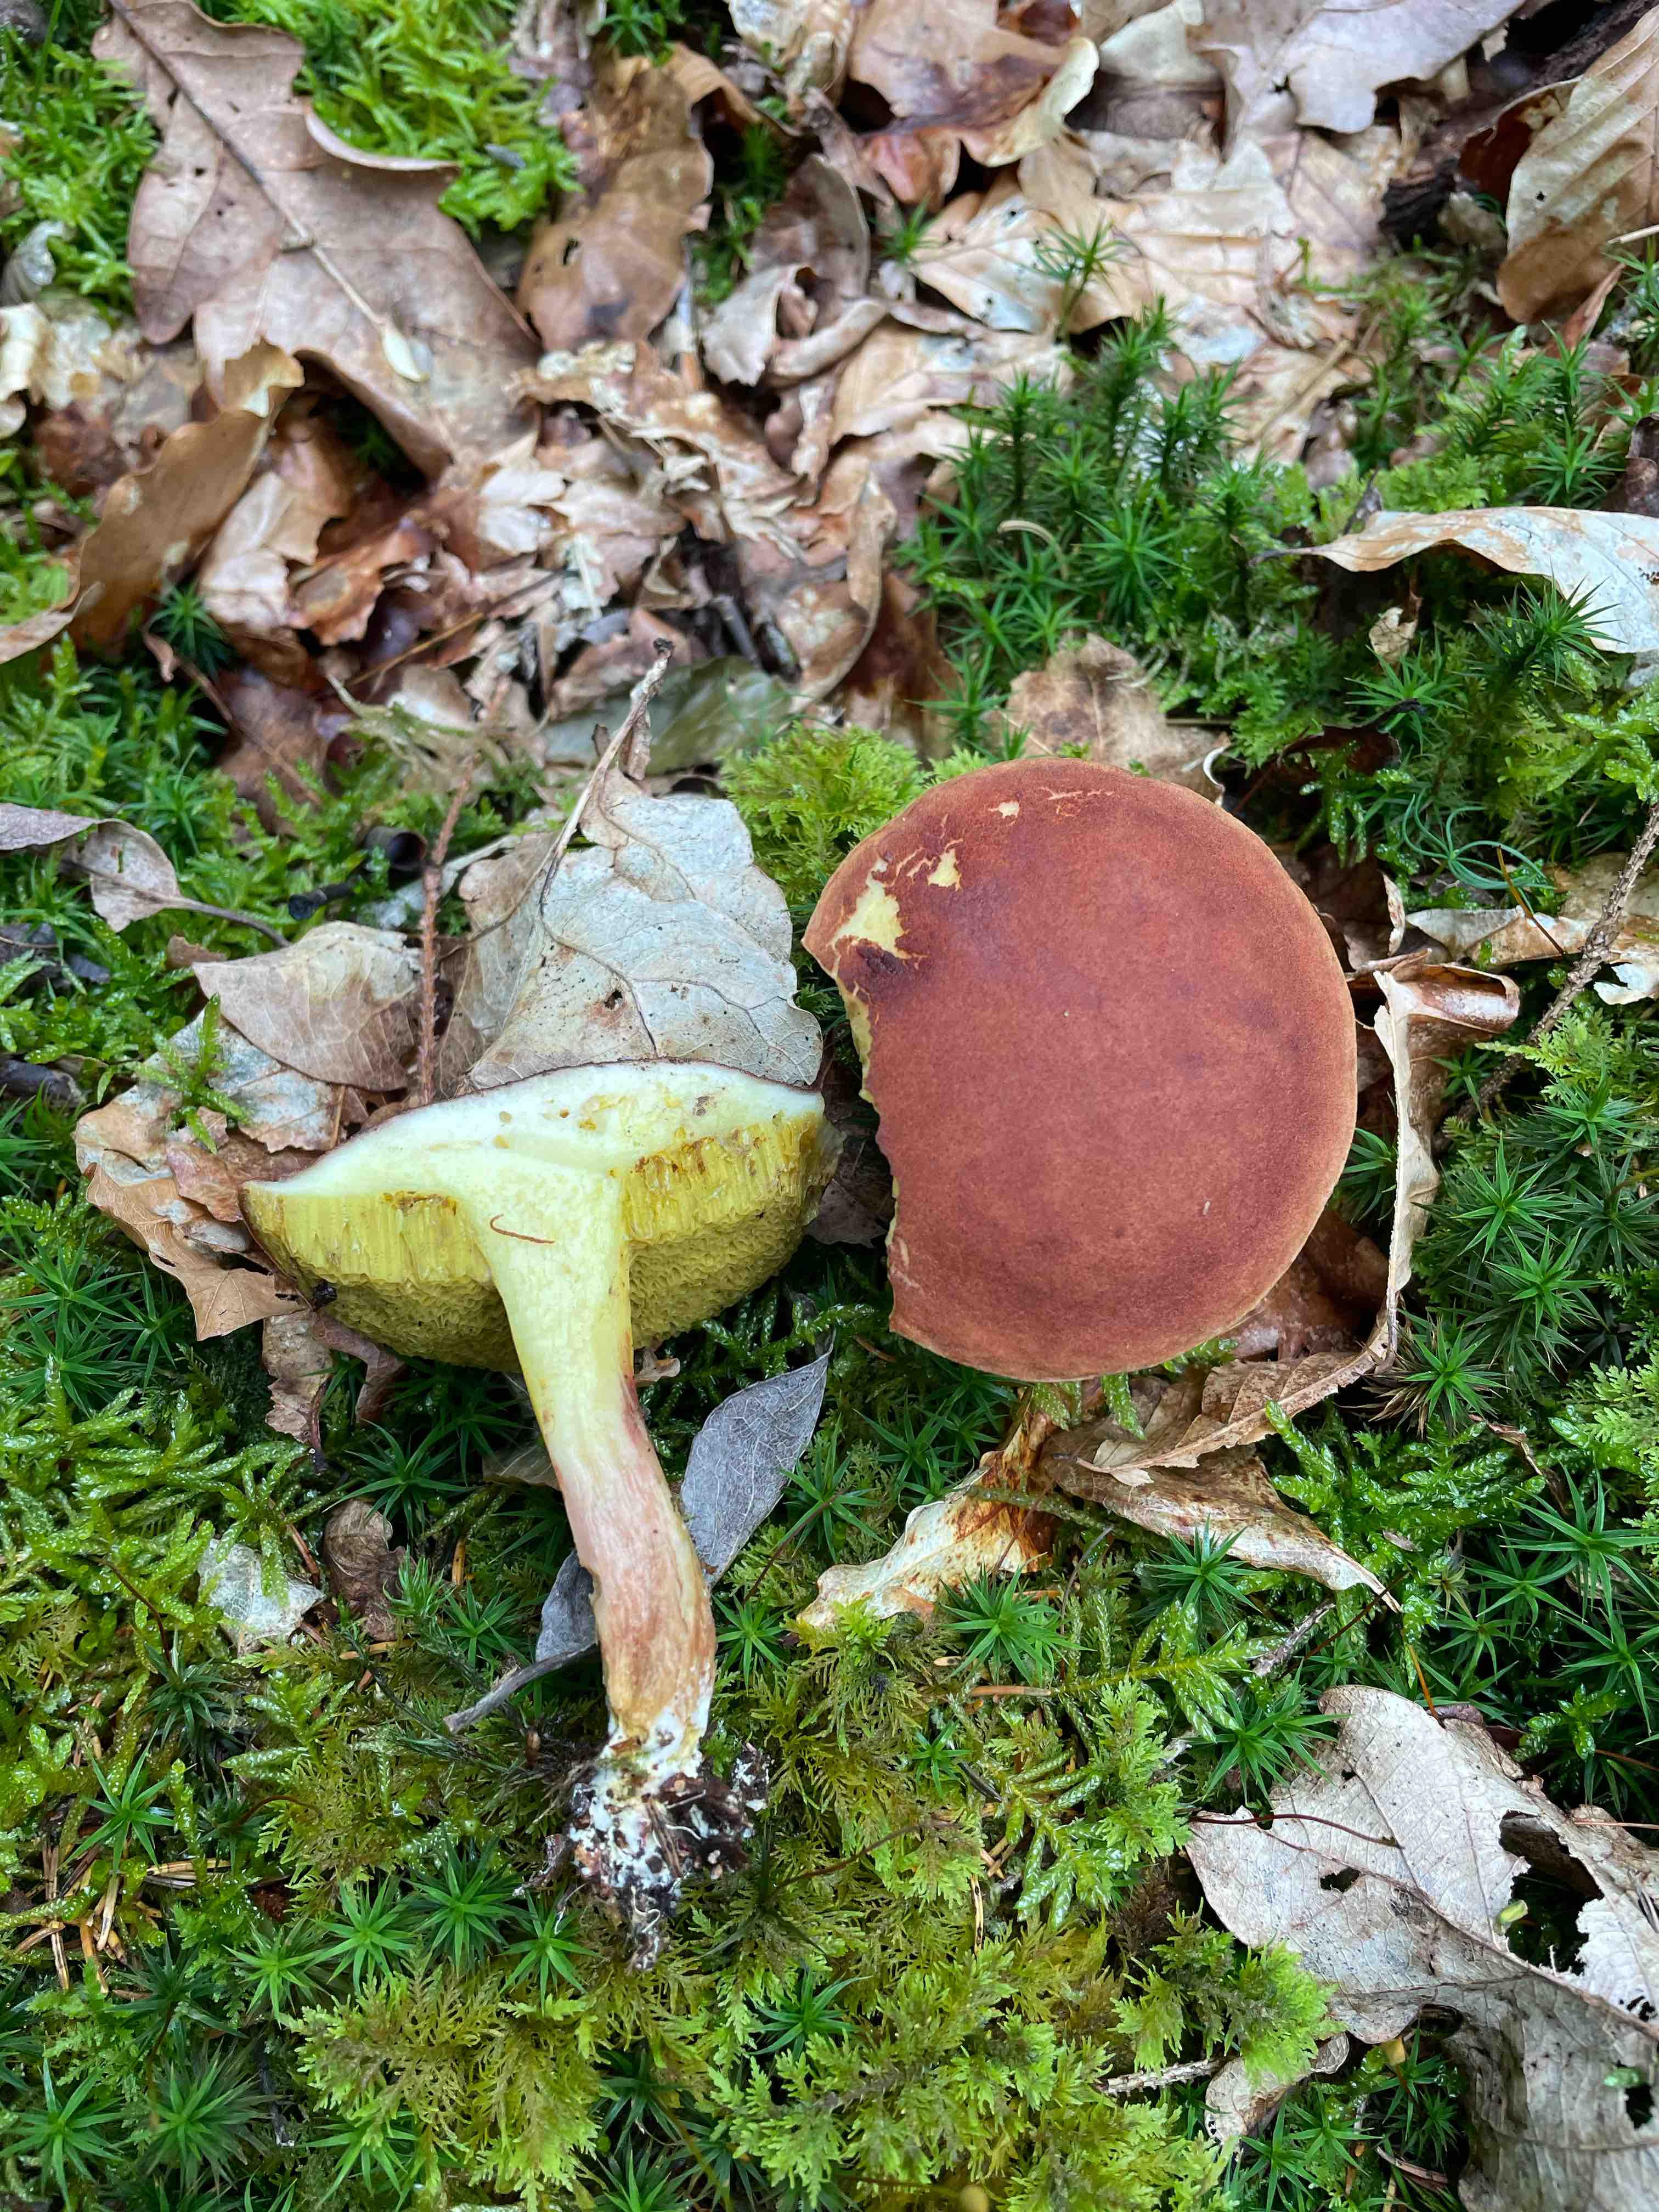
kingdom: Fungi
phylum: Basidiomycota
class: Agaricomycetes
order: Boletales
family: Boletaceae
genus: Xerocomus
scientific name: Xerocomus
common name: filtrørhat
